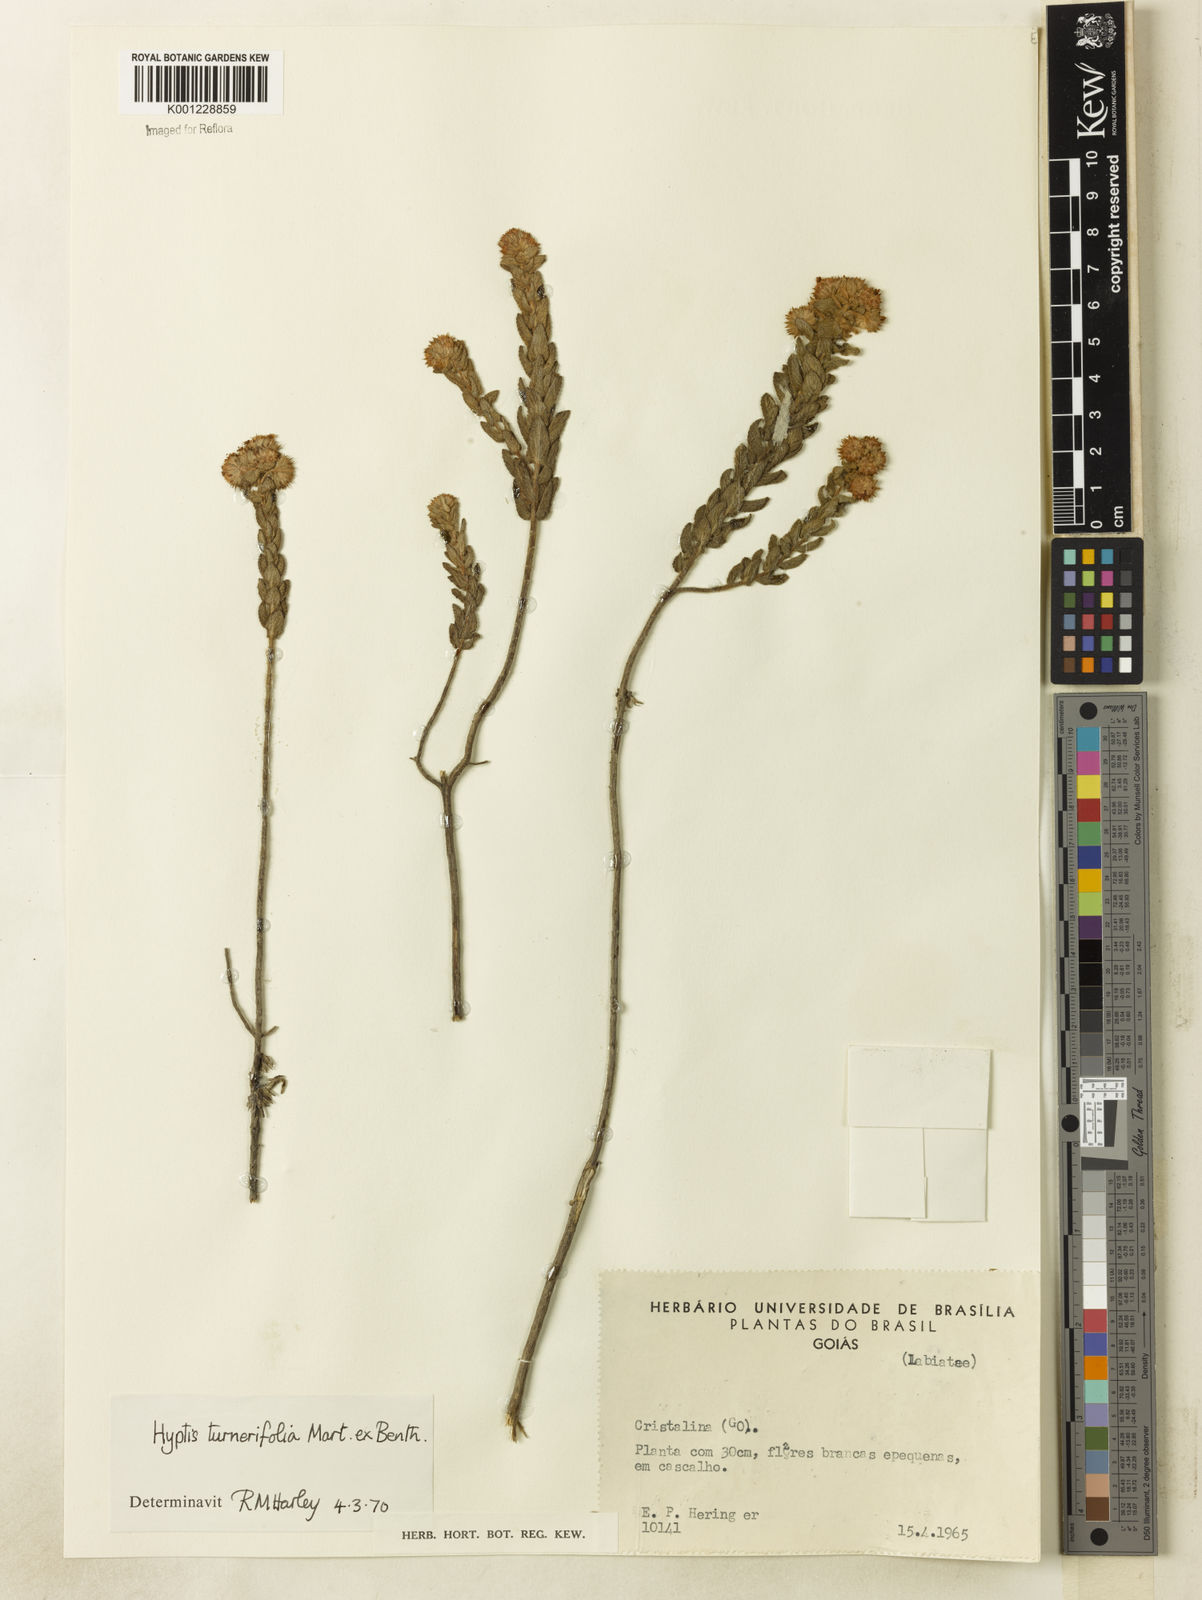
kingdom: Plantae
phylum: Tracheophyta
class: Magnoliopsida
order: Lamiales
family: Lamiaceae
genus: Hyptis
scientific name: Hyptis turnerifolia
